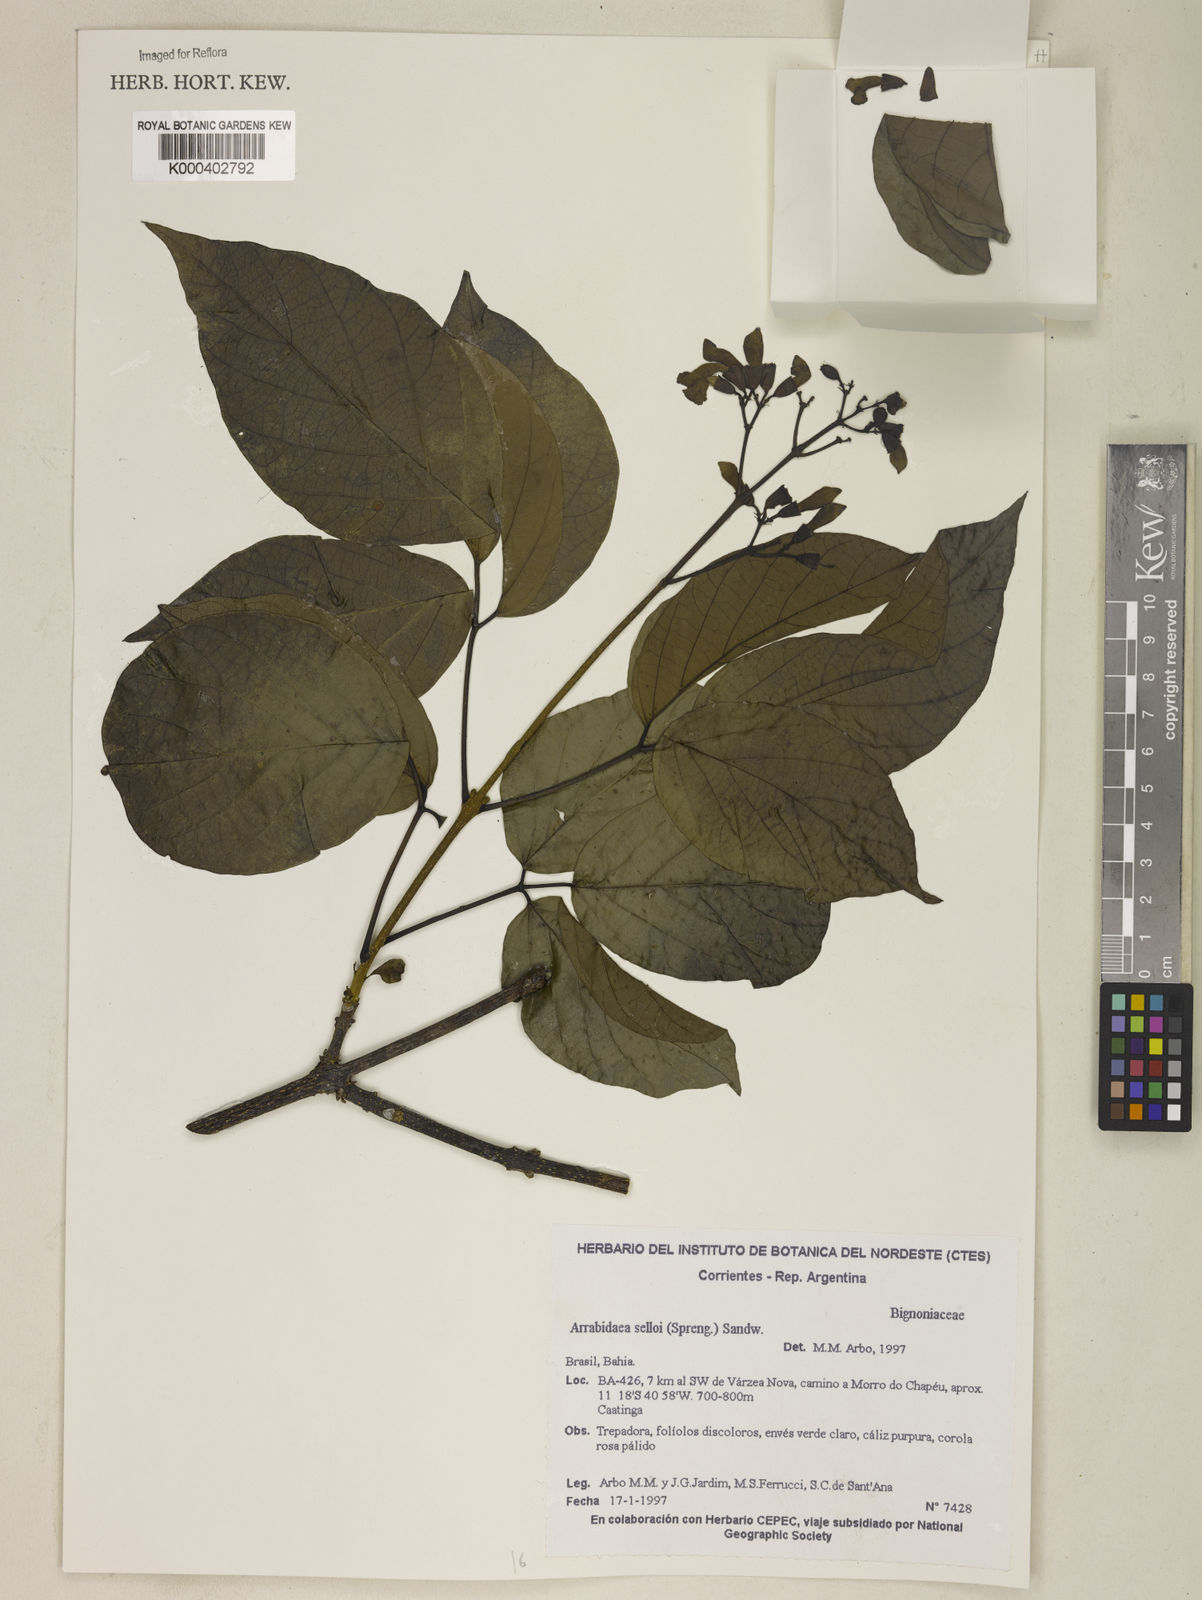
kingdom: Plantae
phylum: Tracheophyta
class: Magnoliopsida
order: Lamiales
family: Bignoniaceae
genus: Tanaecium
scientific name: Tanaecium selloi
